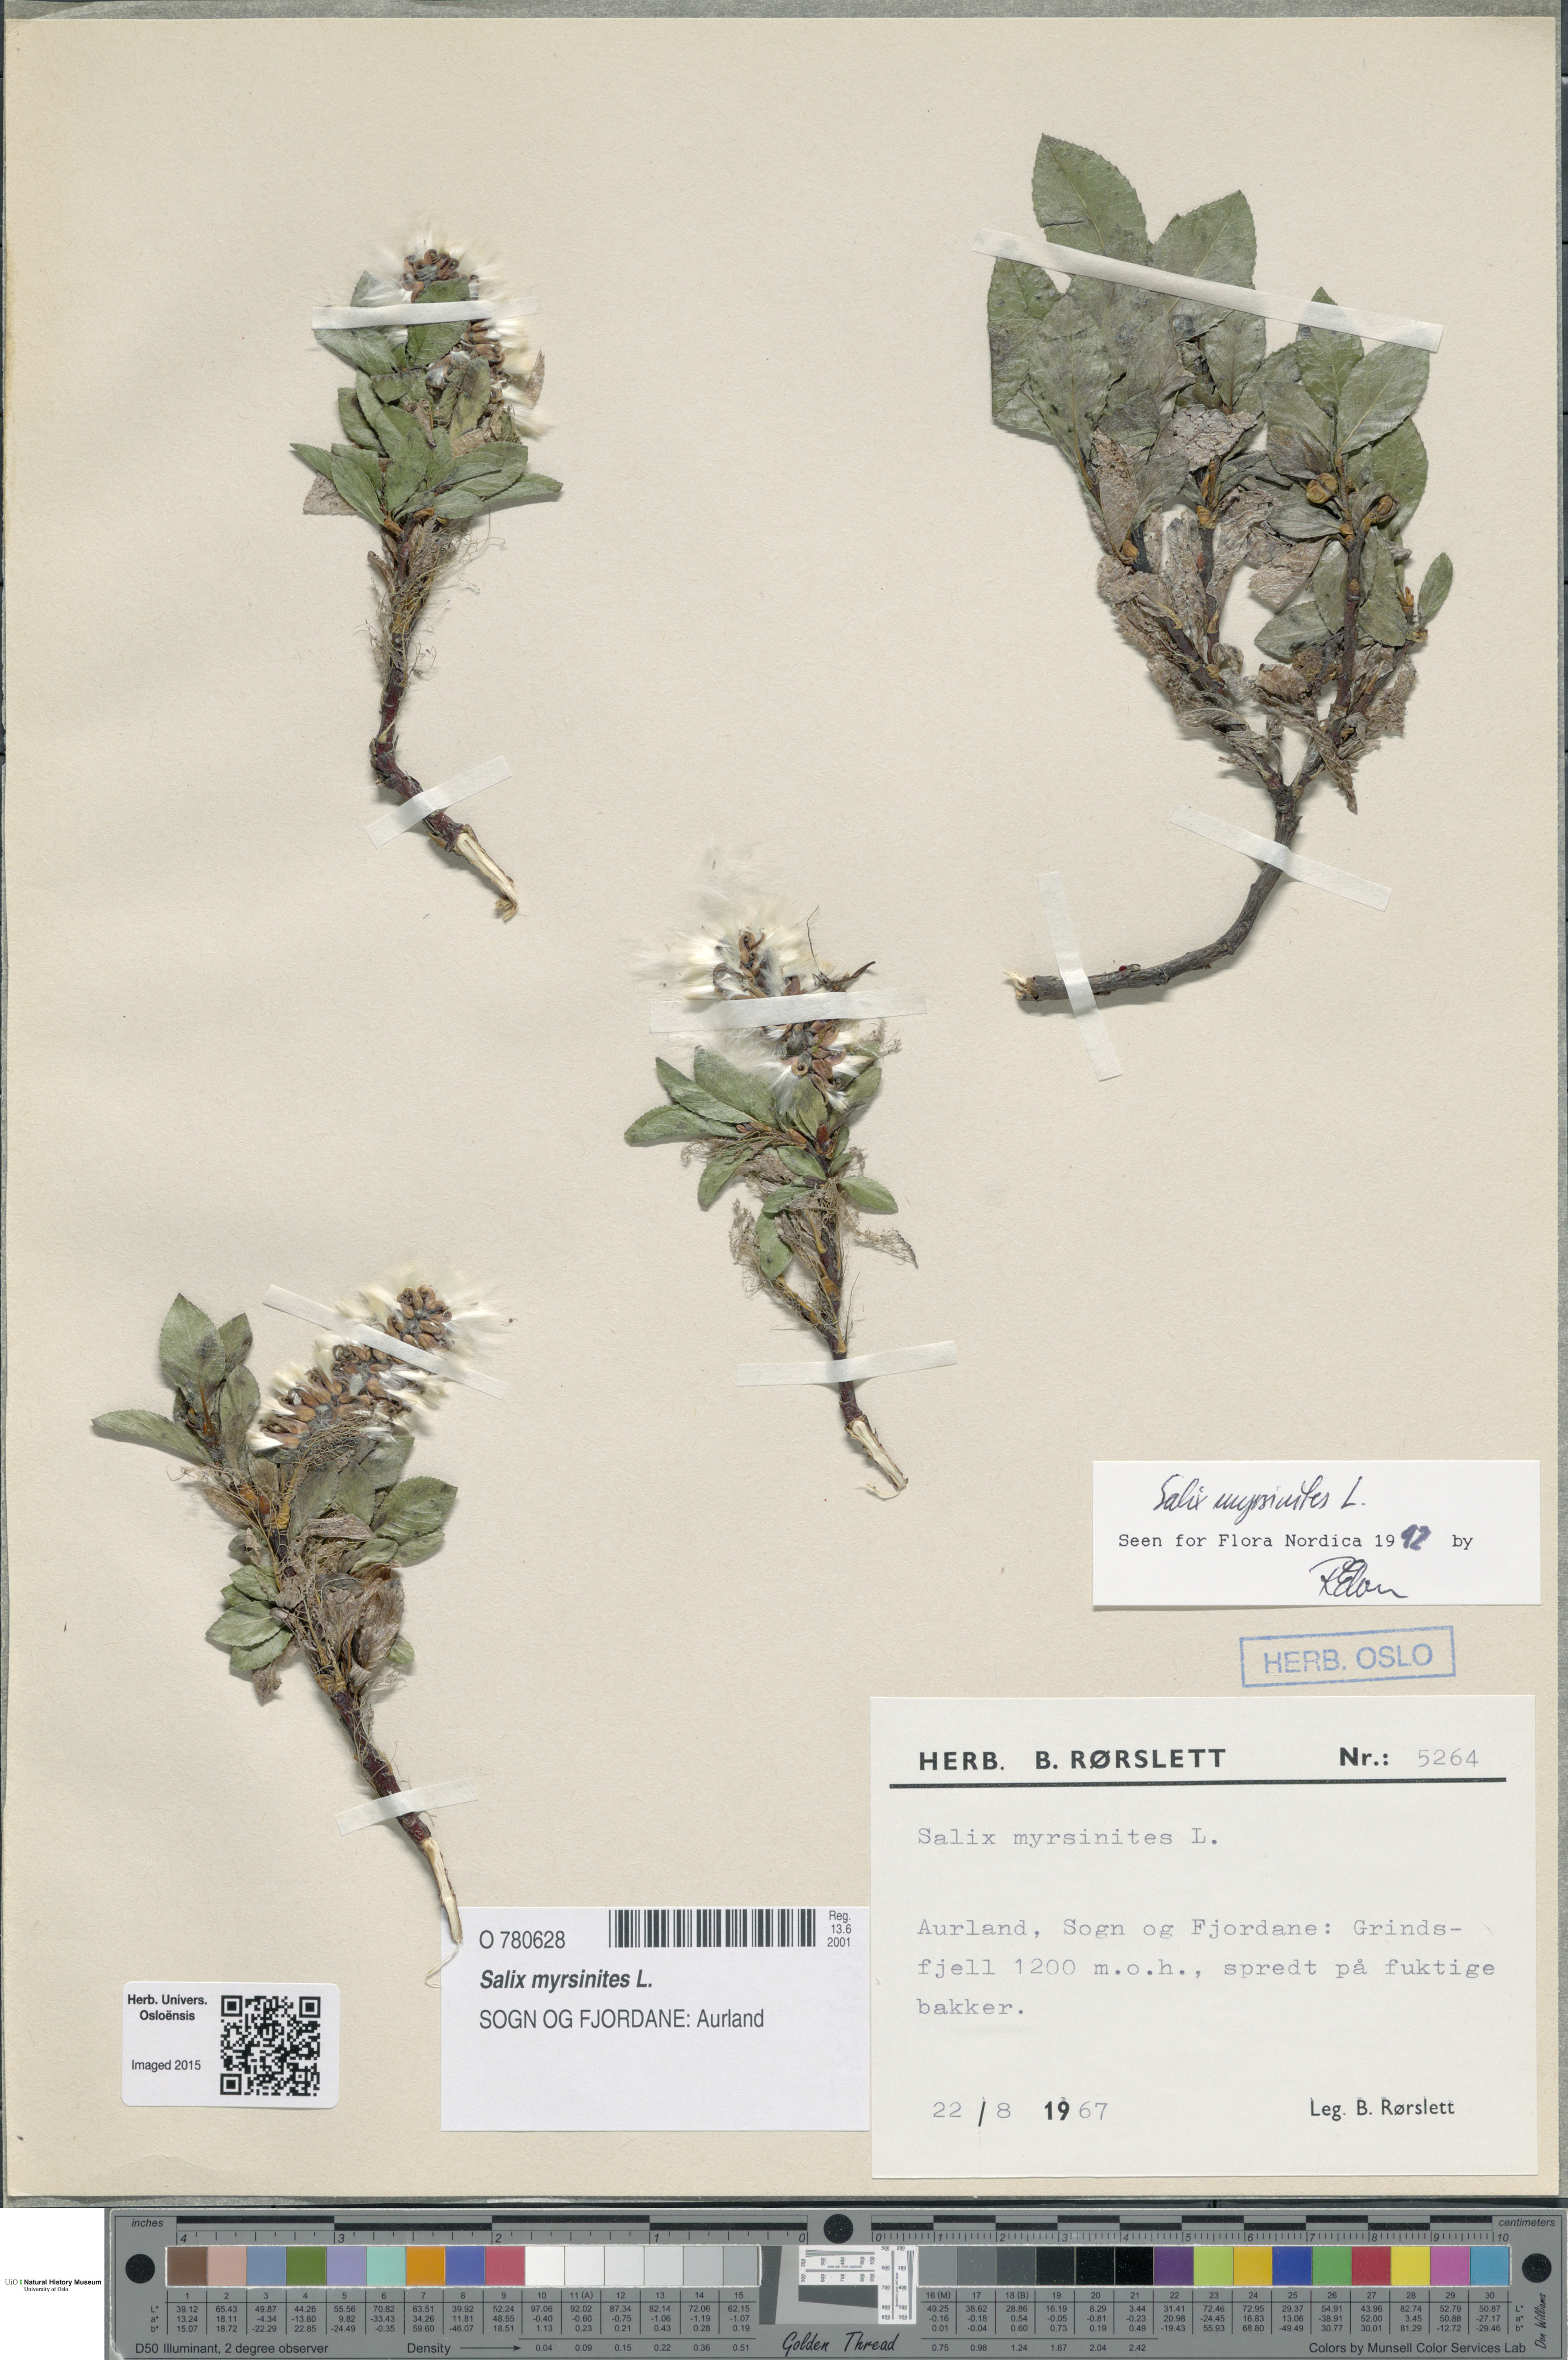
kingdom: Plantae
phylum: Tracheophyta
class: Magnoliopsida
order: Malpighiales
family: Salicaceae
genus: Salix
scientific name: Salix myrsinites
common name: Myrtle willow
